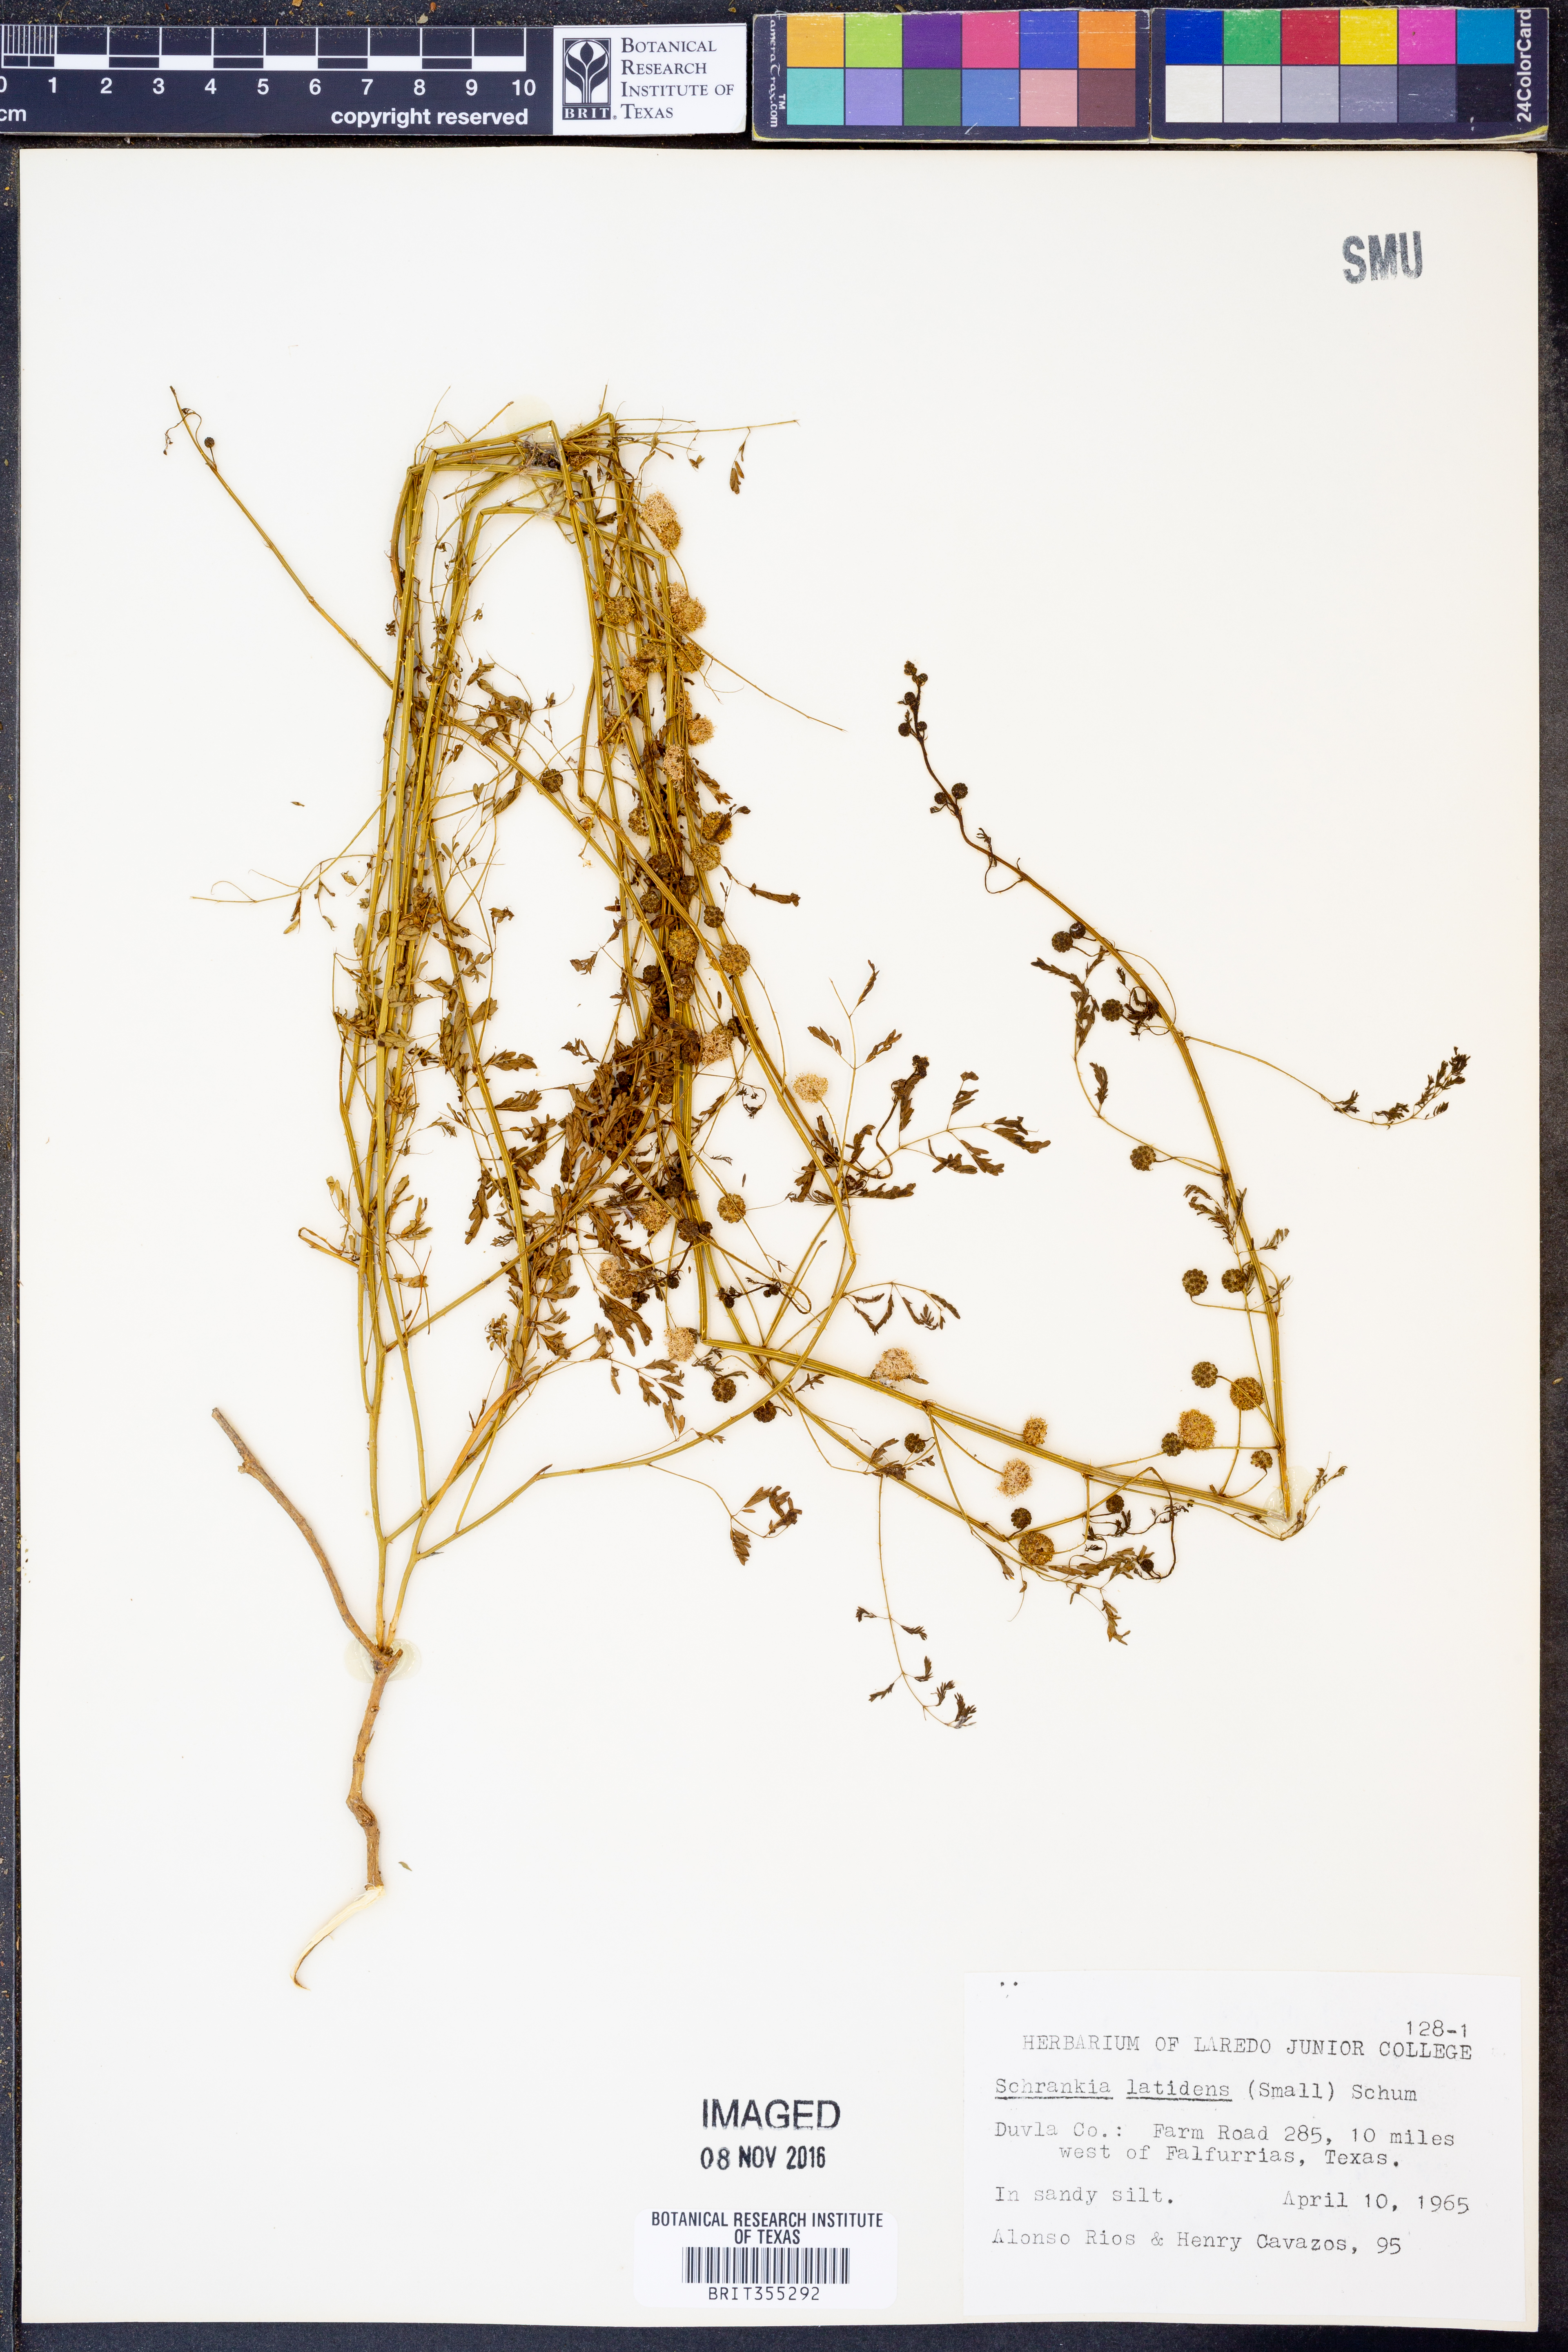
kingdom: Plantae
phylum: Tracheophyta
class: Magnoliopsida
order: Fabales
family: Fabaceae
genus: Mimosa
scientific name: Mimosa quadrivalvis
